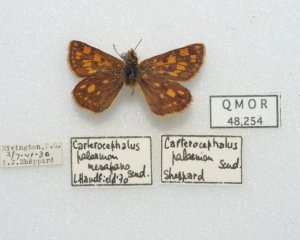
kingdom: Animalia
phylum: Arthropoda
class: Insecta
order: Lepidoptera
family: Hesperiidae
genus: Carterocephalus
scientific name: Carterocephalus palaemon
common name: Chequered Skipper
